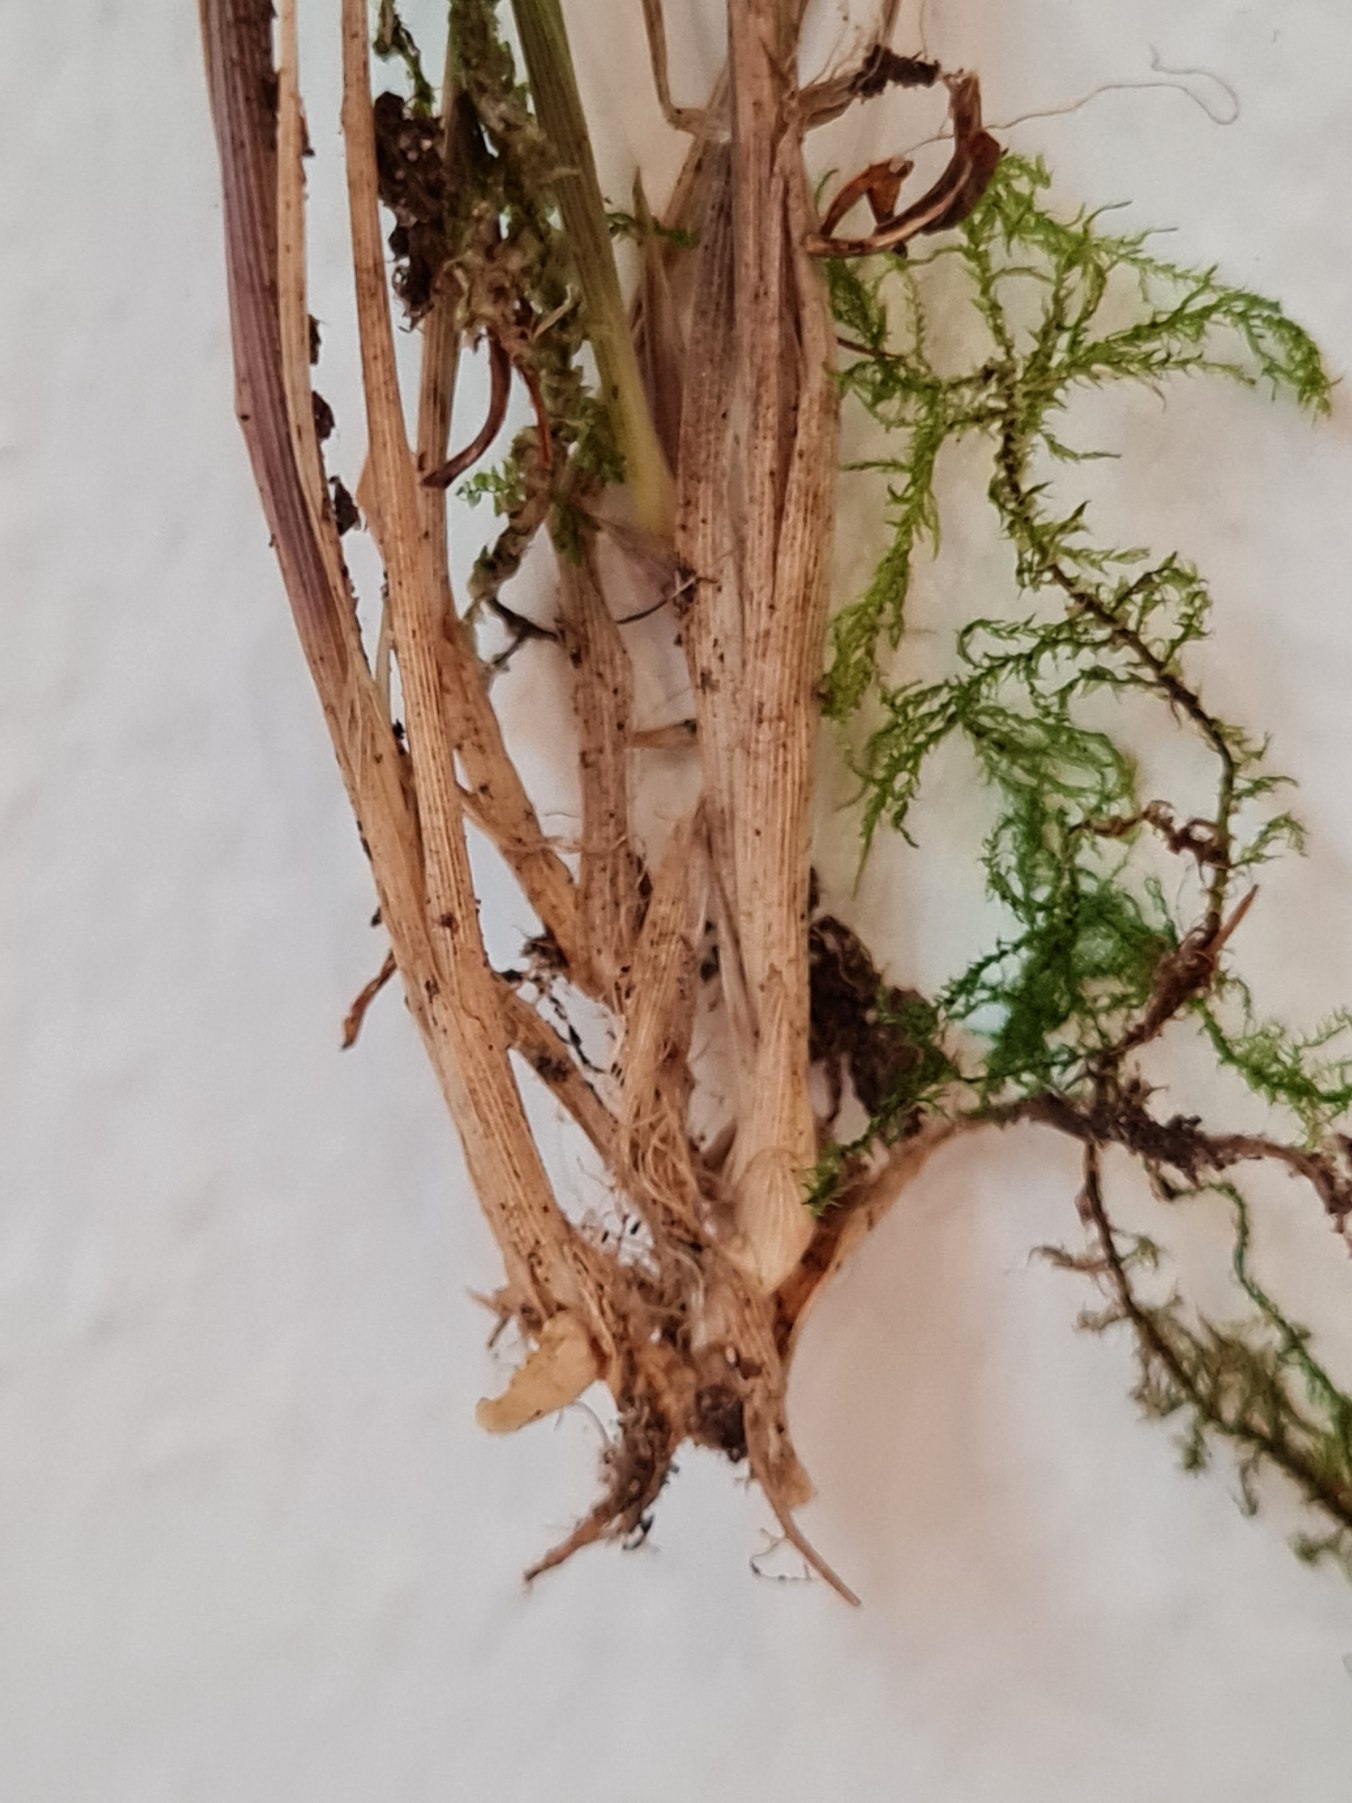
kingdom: Plantae
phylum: Tracheophyta
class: Liliopsida
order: Poales
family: Poaceae
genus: Calamagrostis
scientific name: Calamagrostis arundinacea
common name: Skov-rørhvene
